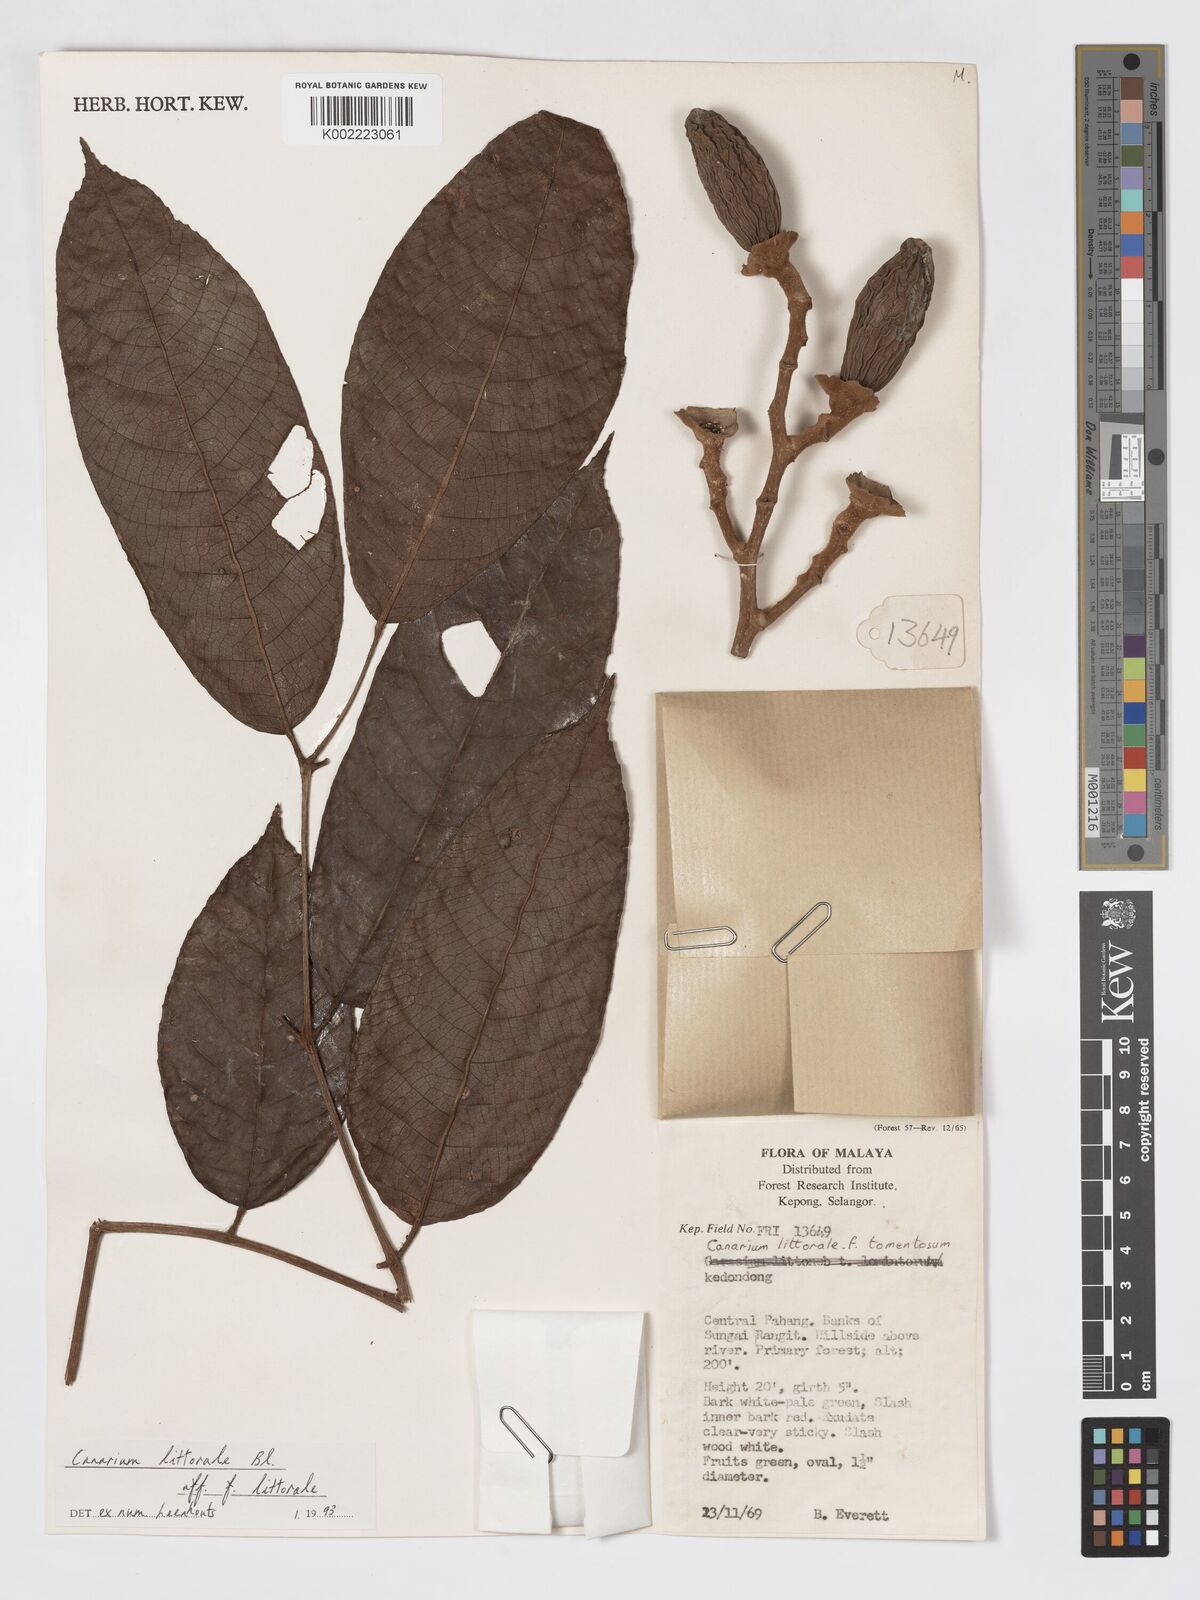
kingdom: Plantae
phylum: Tracheophyta
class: Magnoliopsida
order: Sapindales
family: Burseraceae
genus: Canarium
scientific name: Canarium littorale
